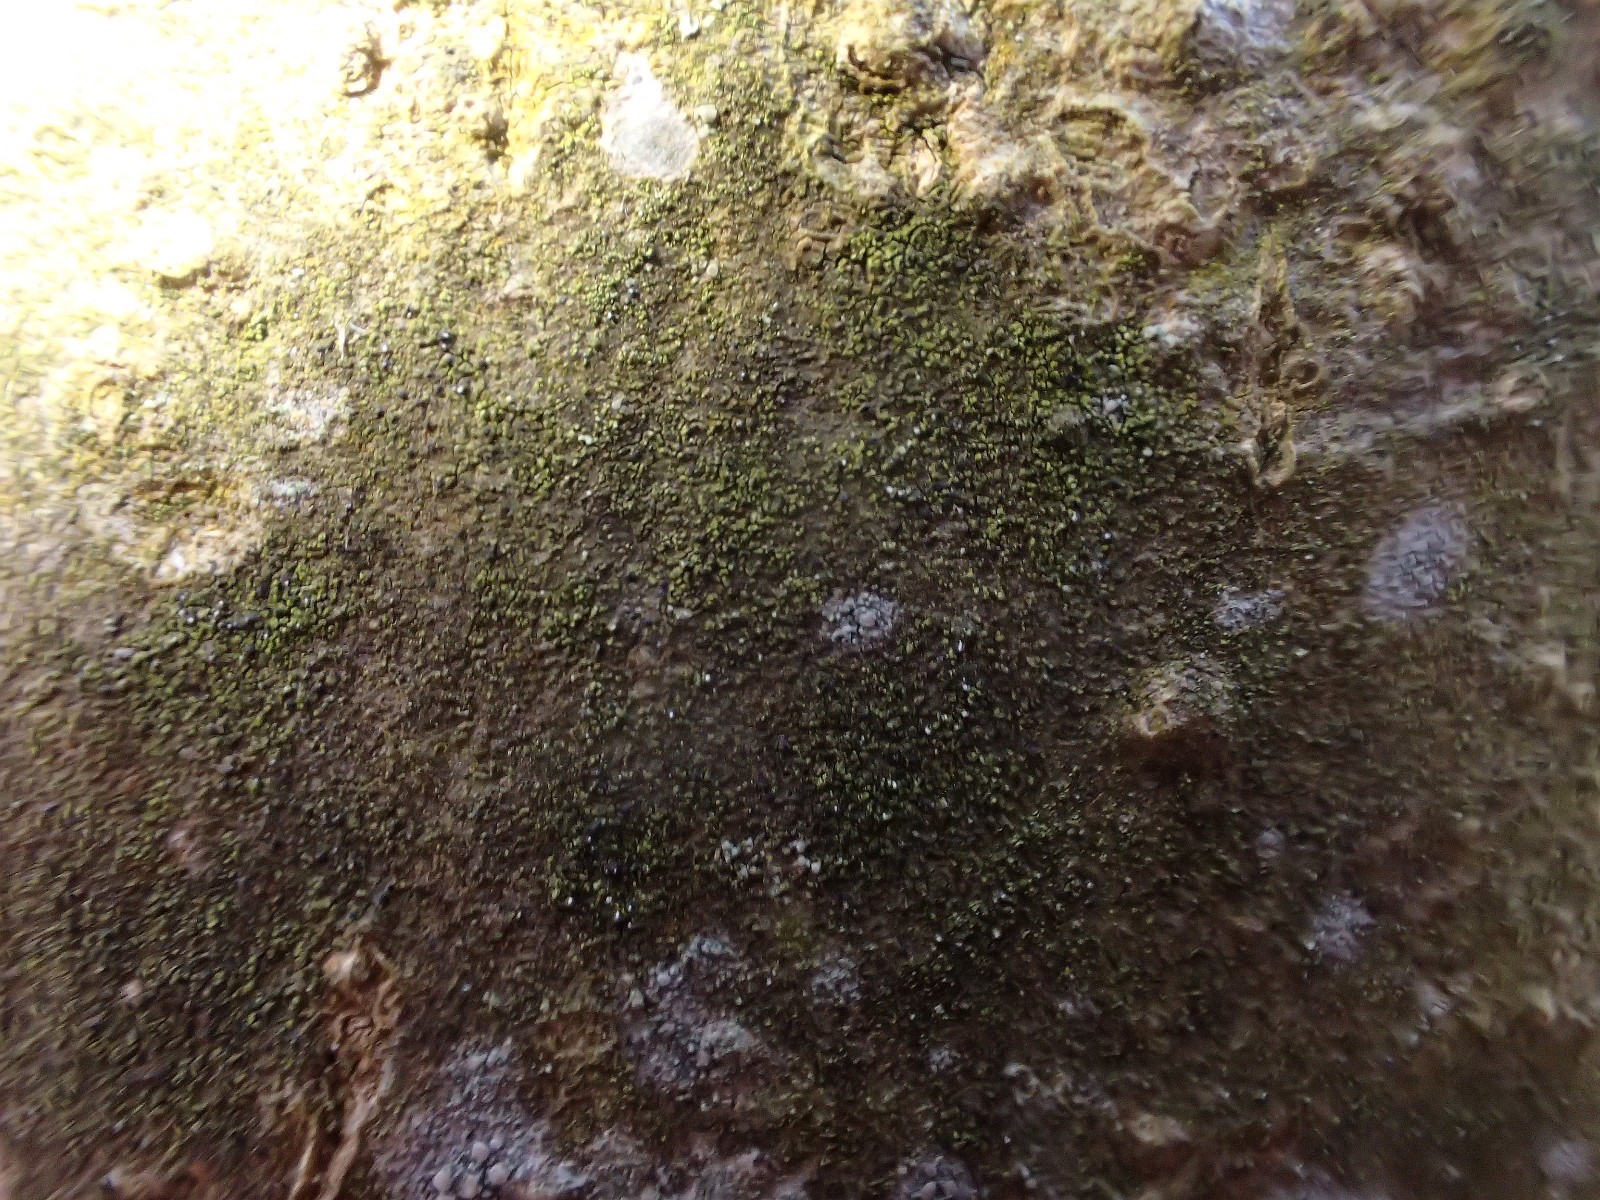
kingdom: Fungi
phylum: Ascomycota
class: Lecanoromycetes
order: Ostropales
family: Porinaceae
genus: Pseudosagedia
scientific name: Pseudosagedia aenea
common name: grønlig porina
